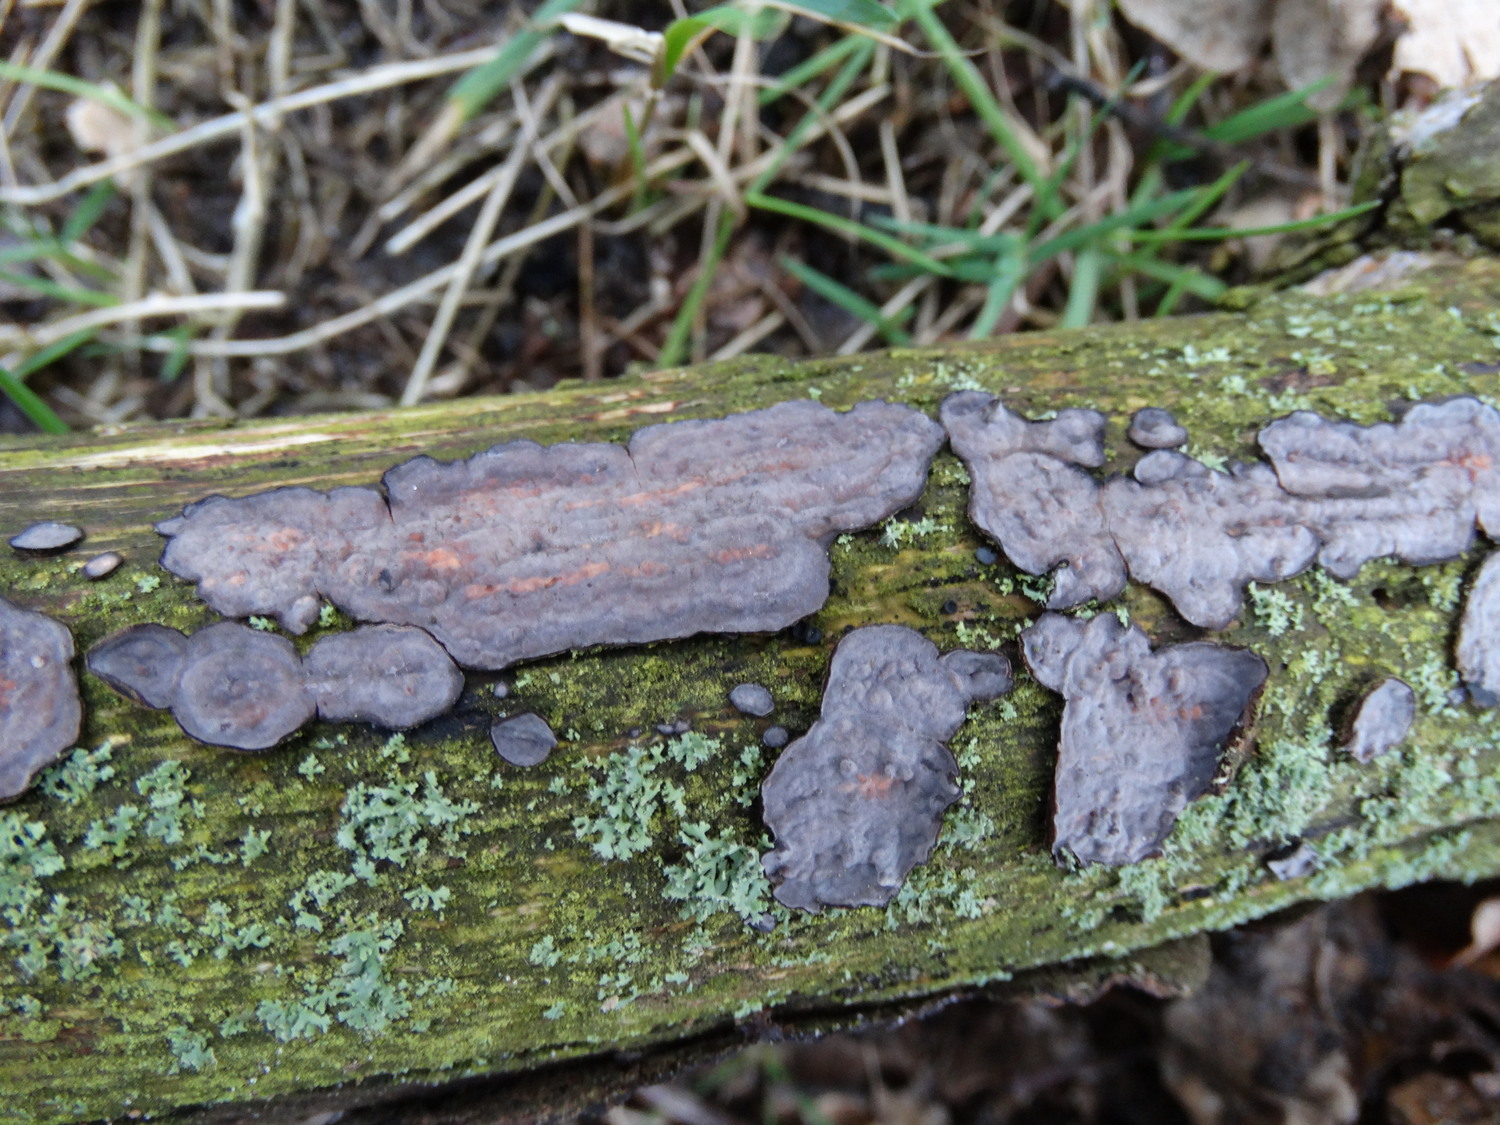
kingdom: Fungi
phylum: Basidiomycota
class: Agaricomycetes
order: Russulales
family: Peniophoraceae
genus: Peniophora
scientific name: Peniophora quercina
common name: ege-voksskind
